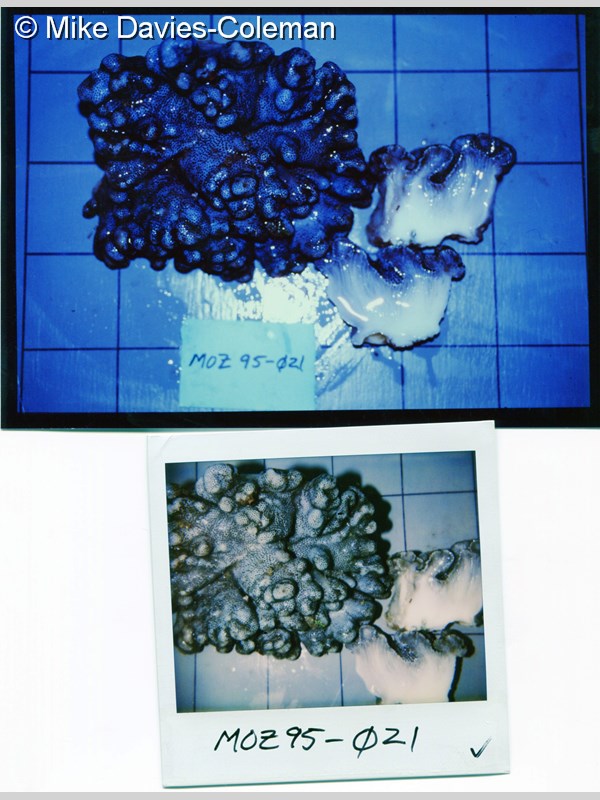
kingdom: Animalia
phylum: Cnidaria
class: Anthozoa
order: Malacalcyonacea
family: Sarcophytidae
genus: Sclerophytum
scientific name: Sclerophytum heterospiculatum
